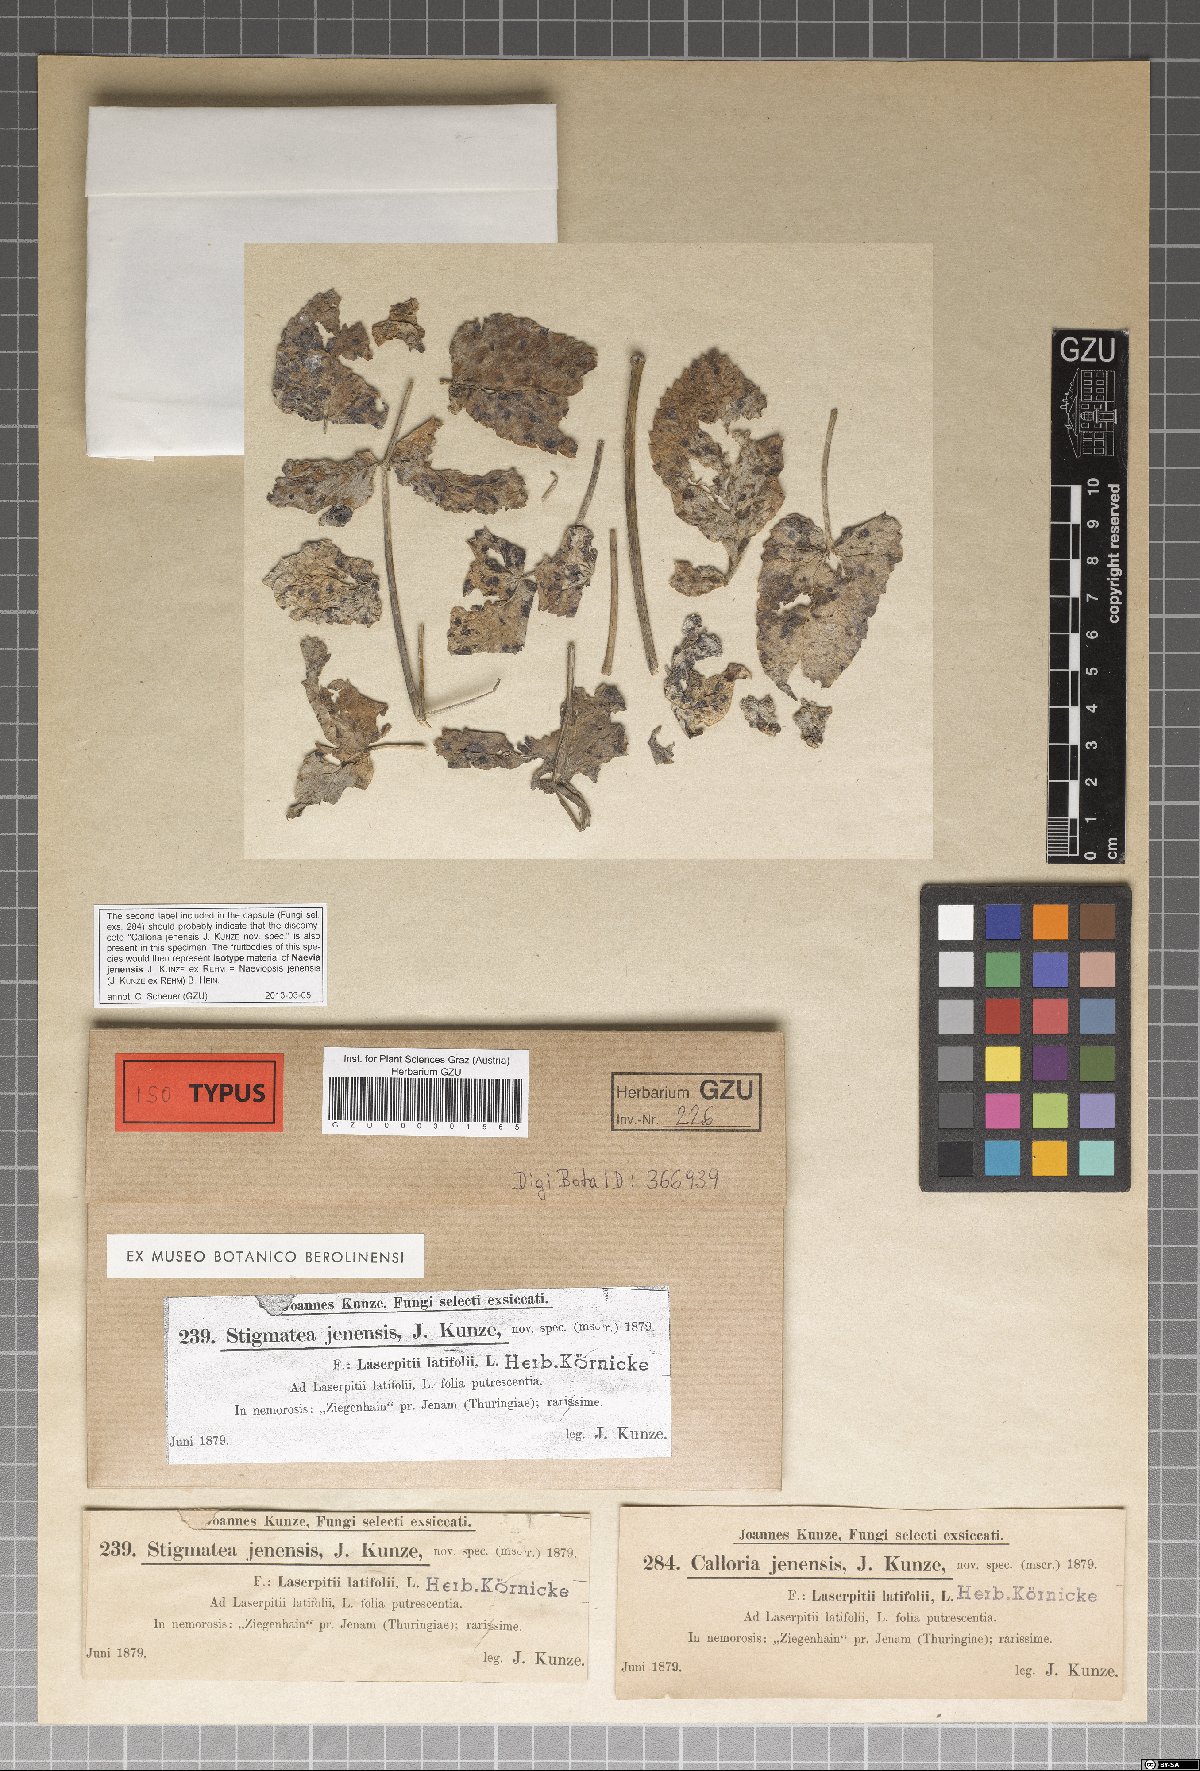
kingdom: Fungi
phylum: Ascomycota
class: Dothideomycetes
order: Mycosphaerellales
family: Mycosphaerellaceae
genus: Mycosphaerella
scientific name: Mycosphaerella jenensis
